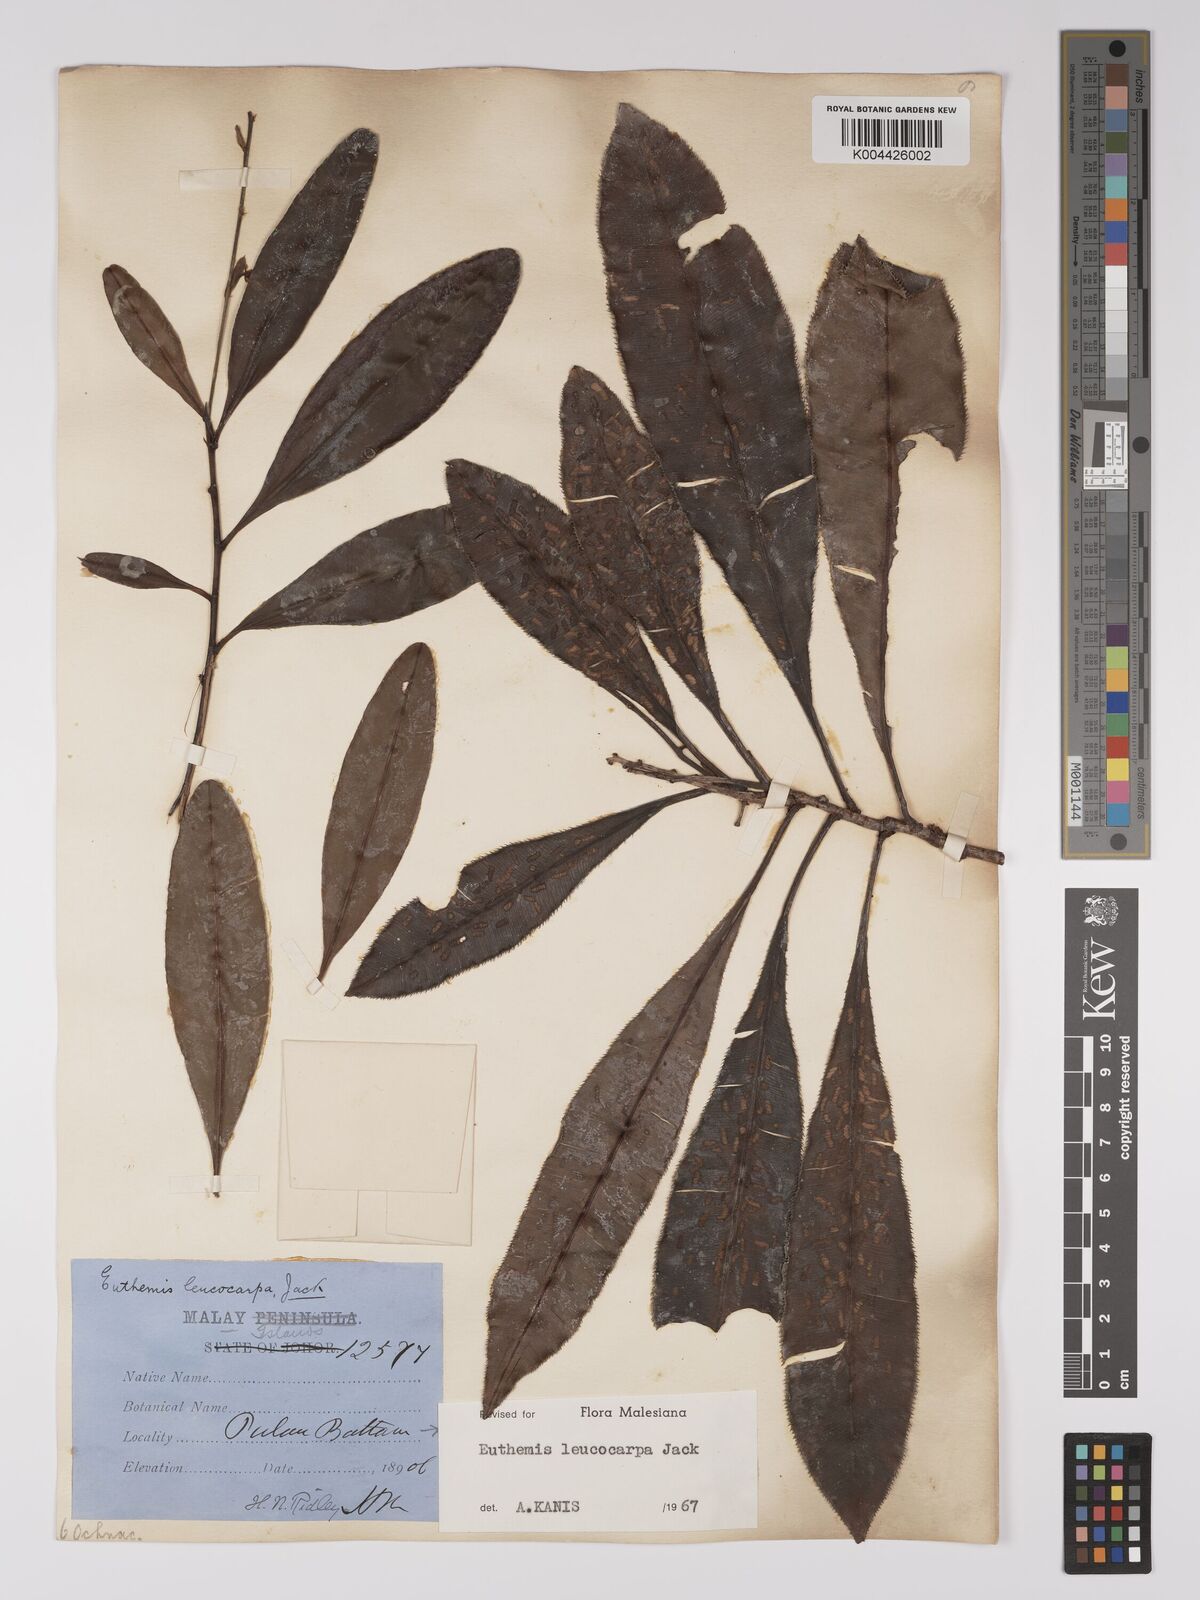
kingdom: Plantae
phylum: Tracheophyta
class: Magnoliopsida
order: Malpighiales
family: Ochnaceae
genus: Euthemis
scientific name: Euthemis leucocarpa
